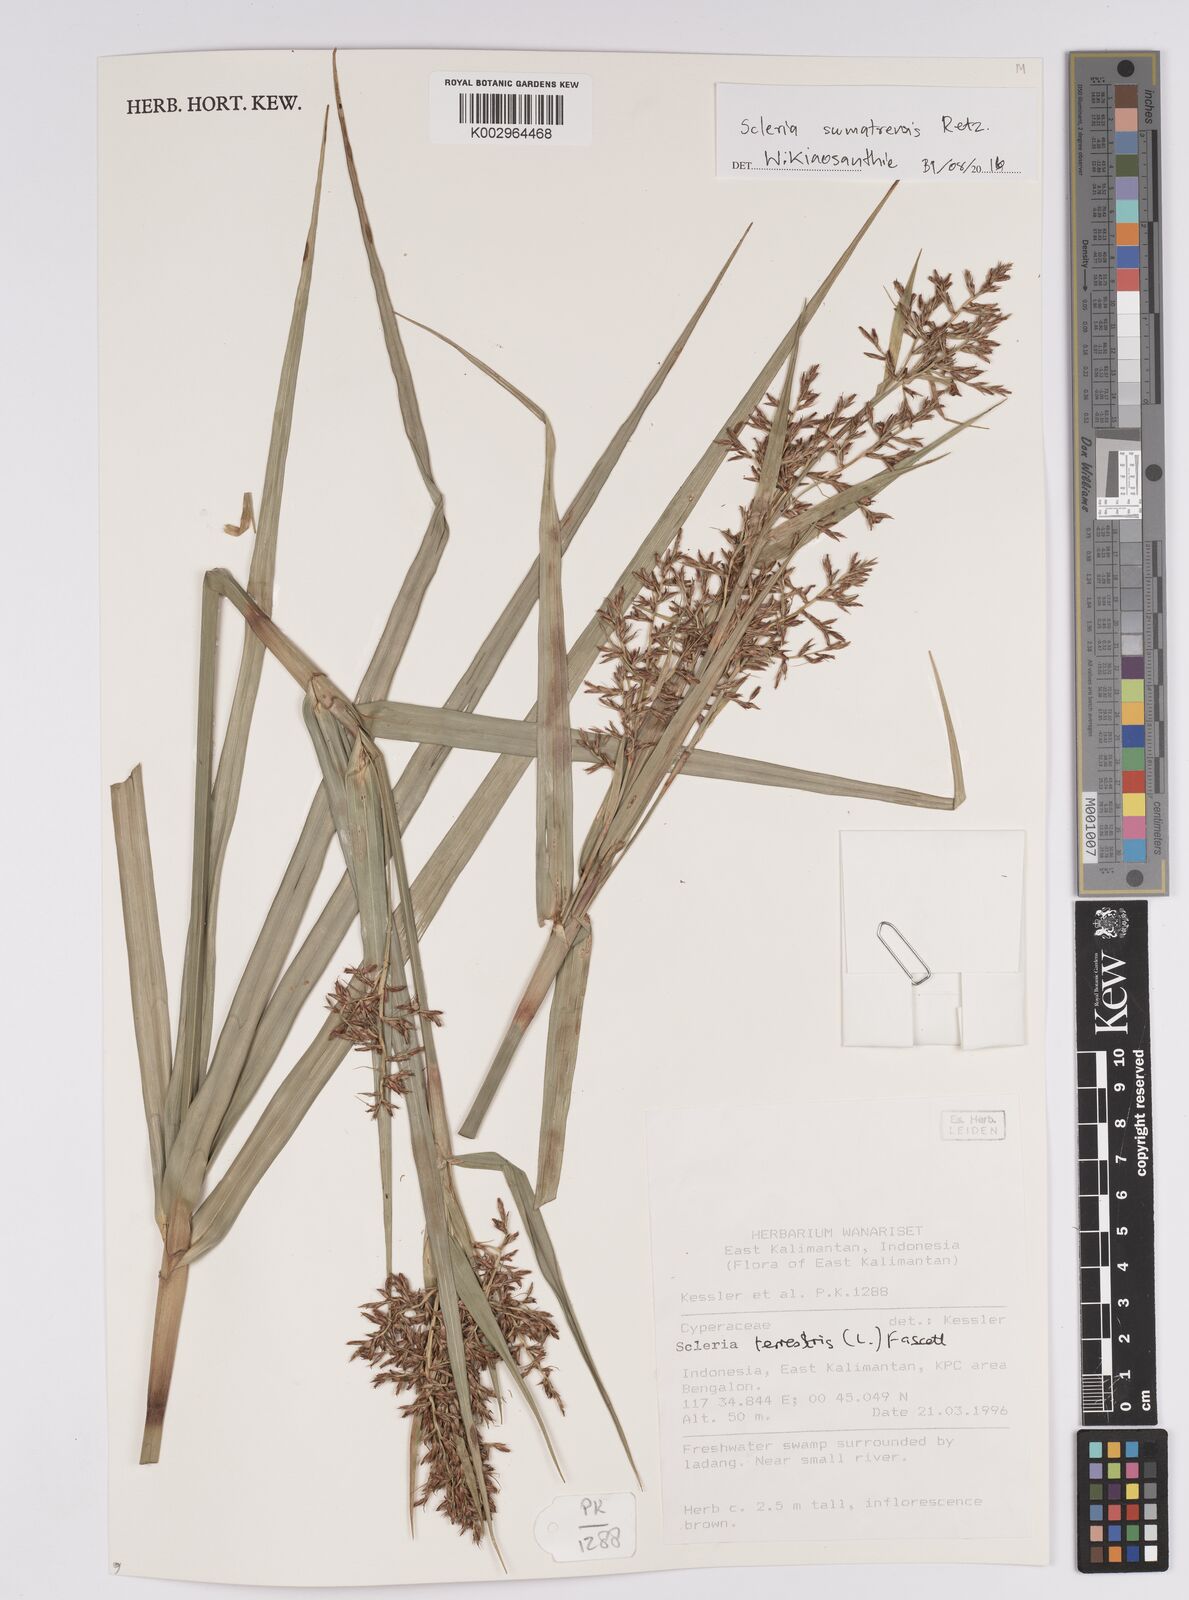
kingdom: Plantae
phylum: Tracheophyta
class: Liliopsida
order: Poales
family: Cyperaceae
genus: Scleria
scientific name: Scleria sumatrensis
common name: Sumatran scleria
